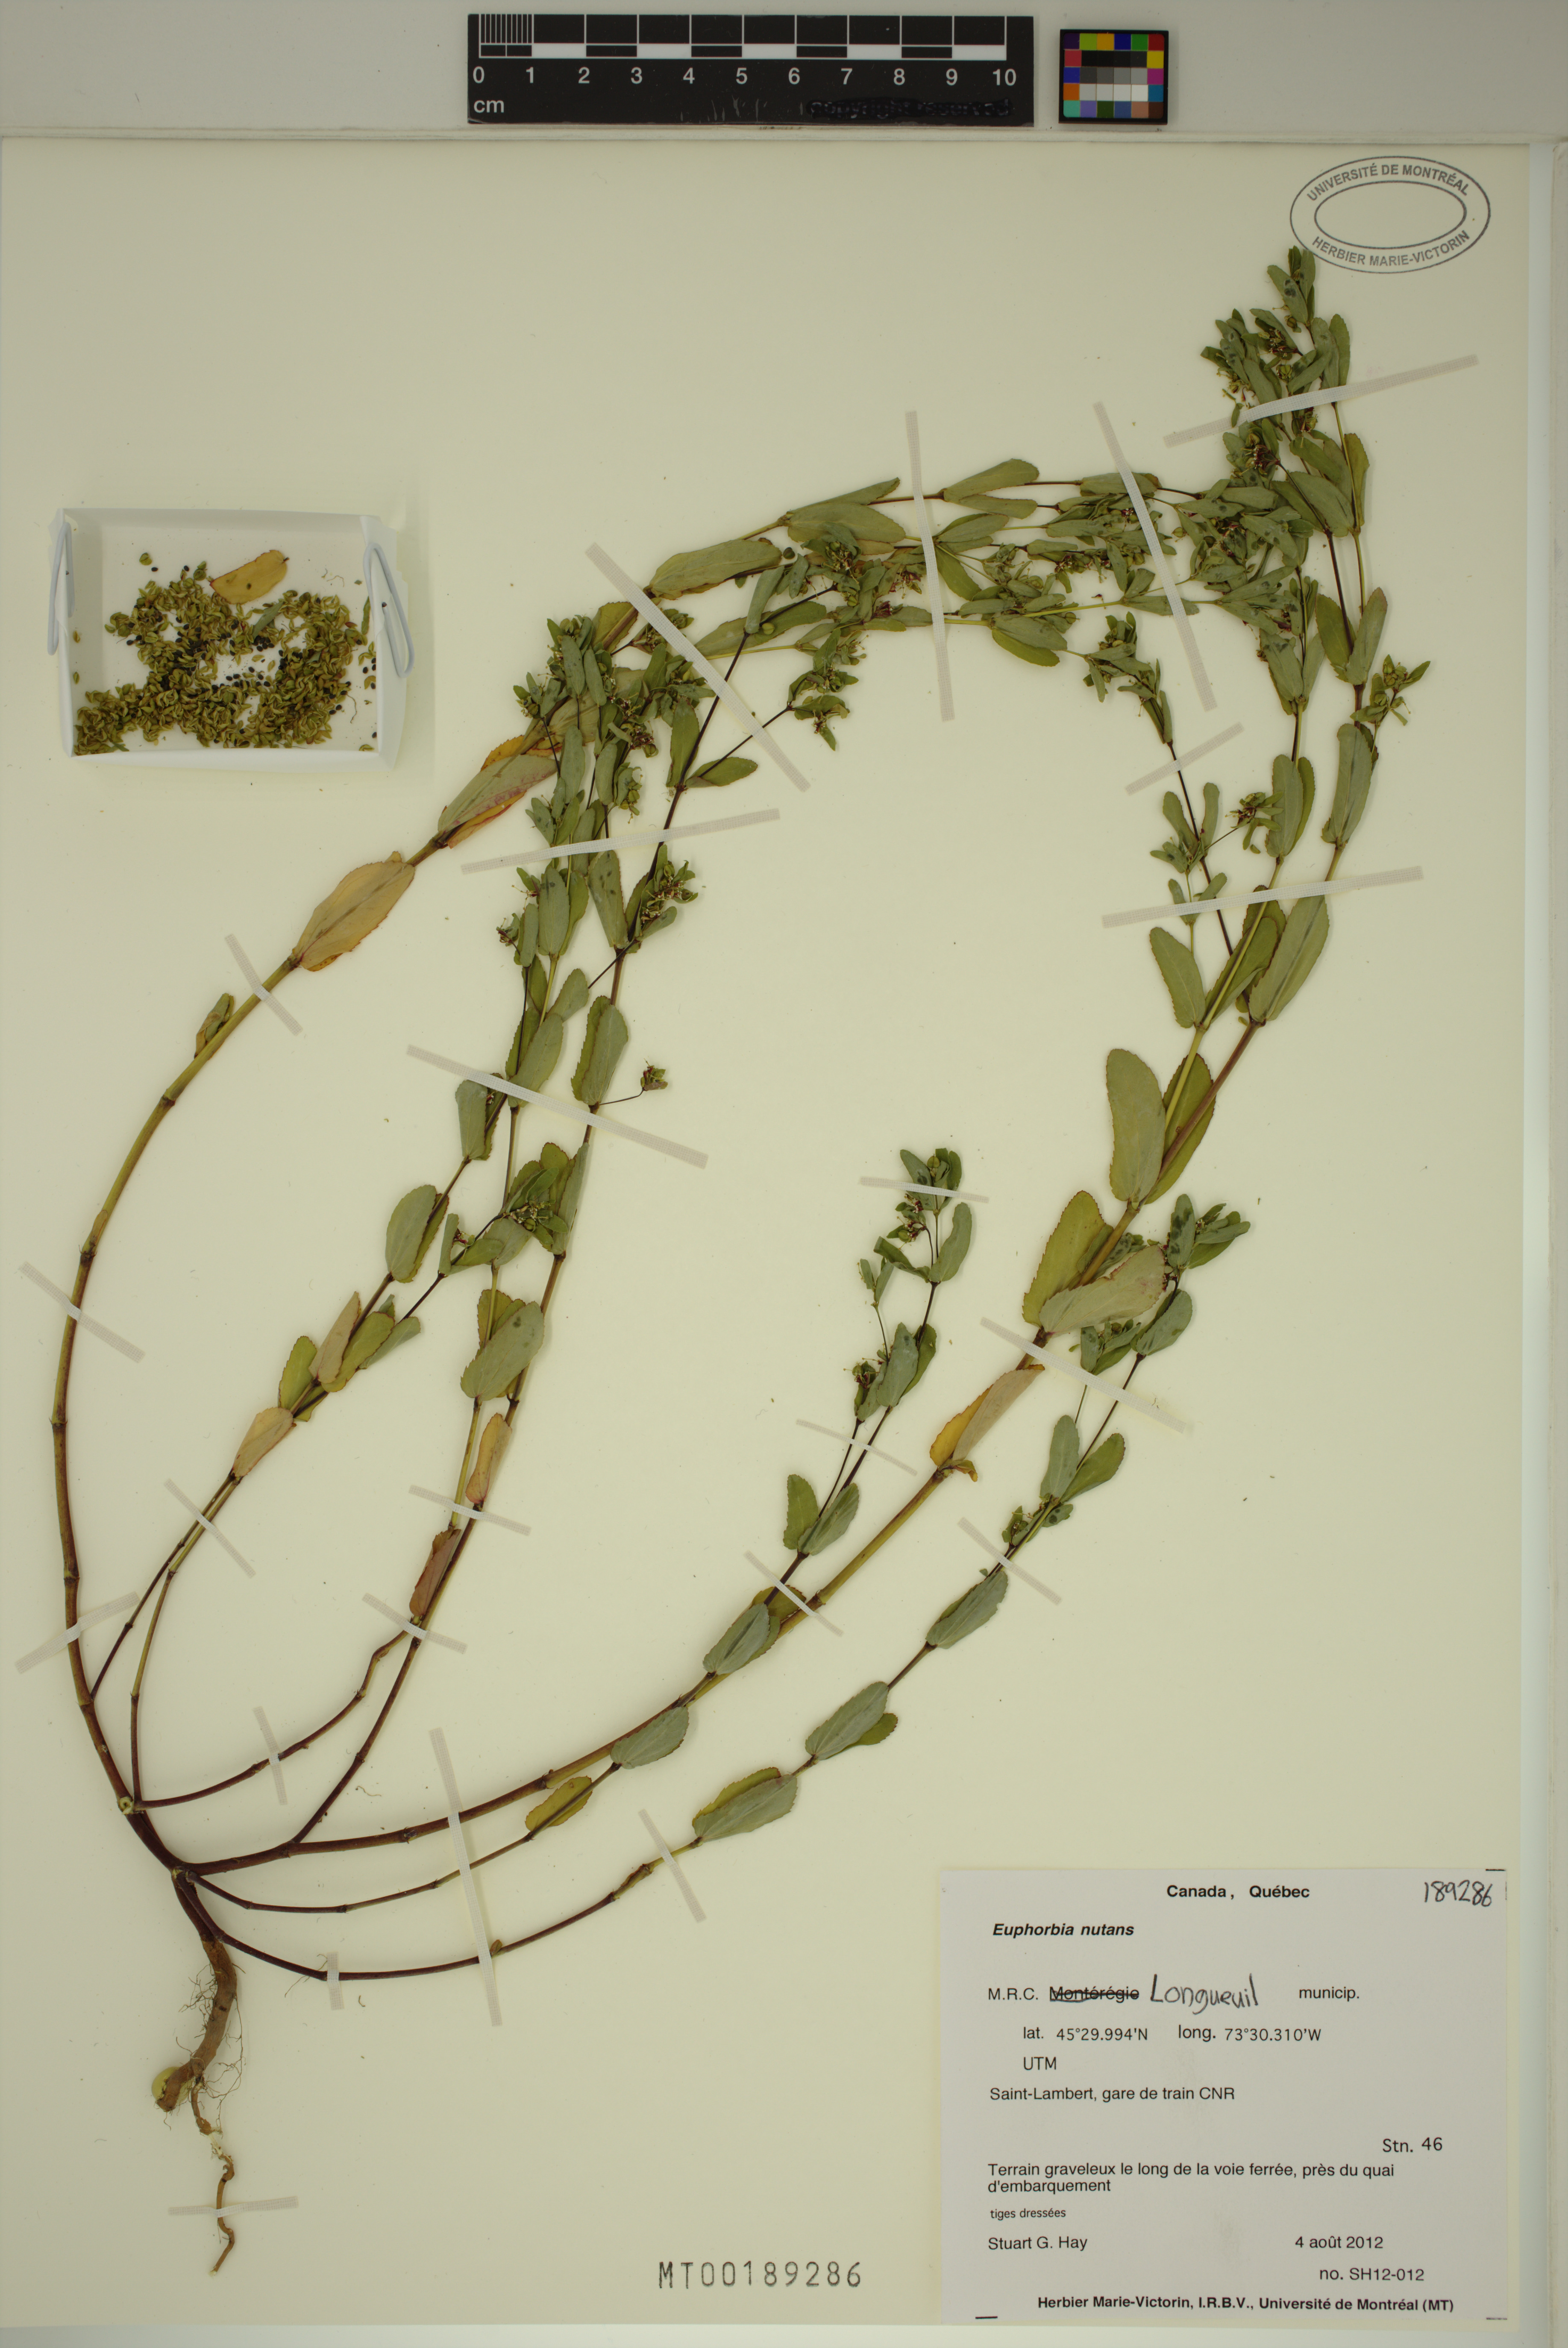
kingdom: Plantae
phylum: Tracheophyta
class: Magnoliopsida
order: Malpighiales
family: Euphorbiaceae
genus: Euphorbia
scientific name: Euphorbia nutans
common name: Eyebane
